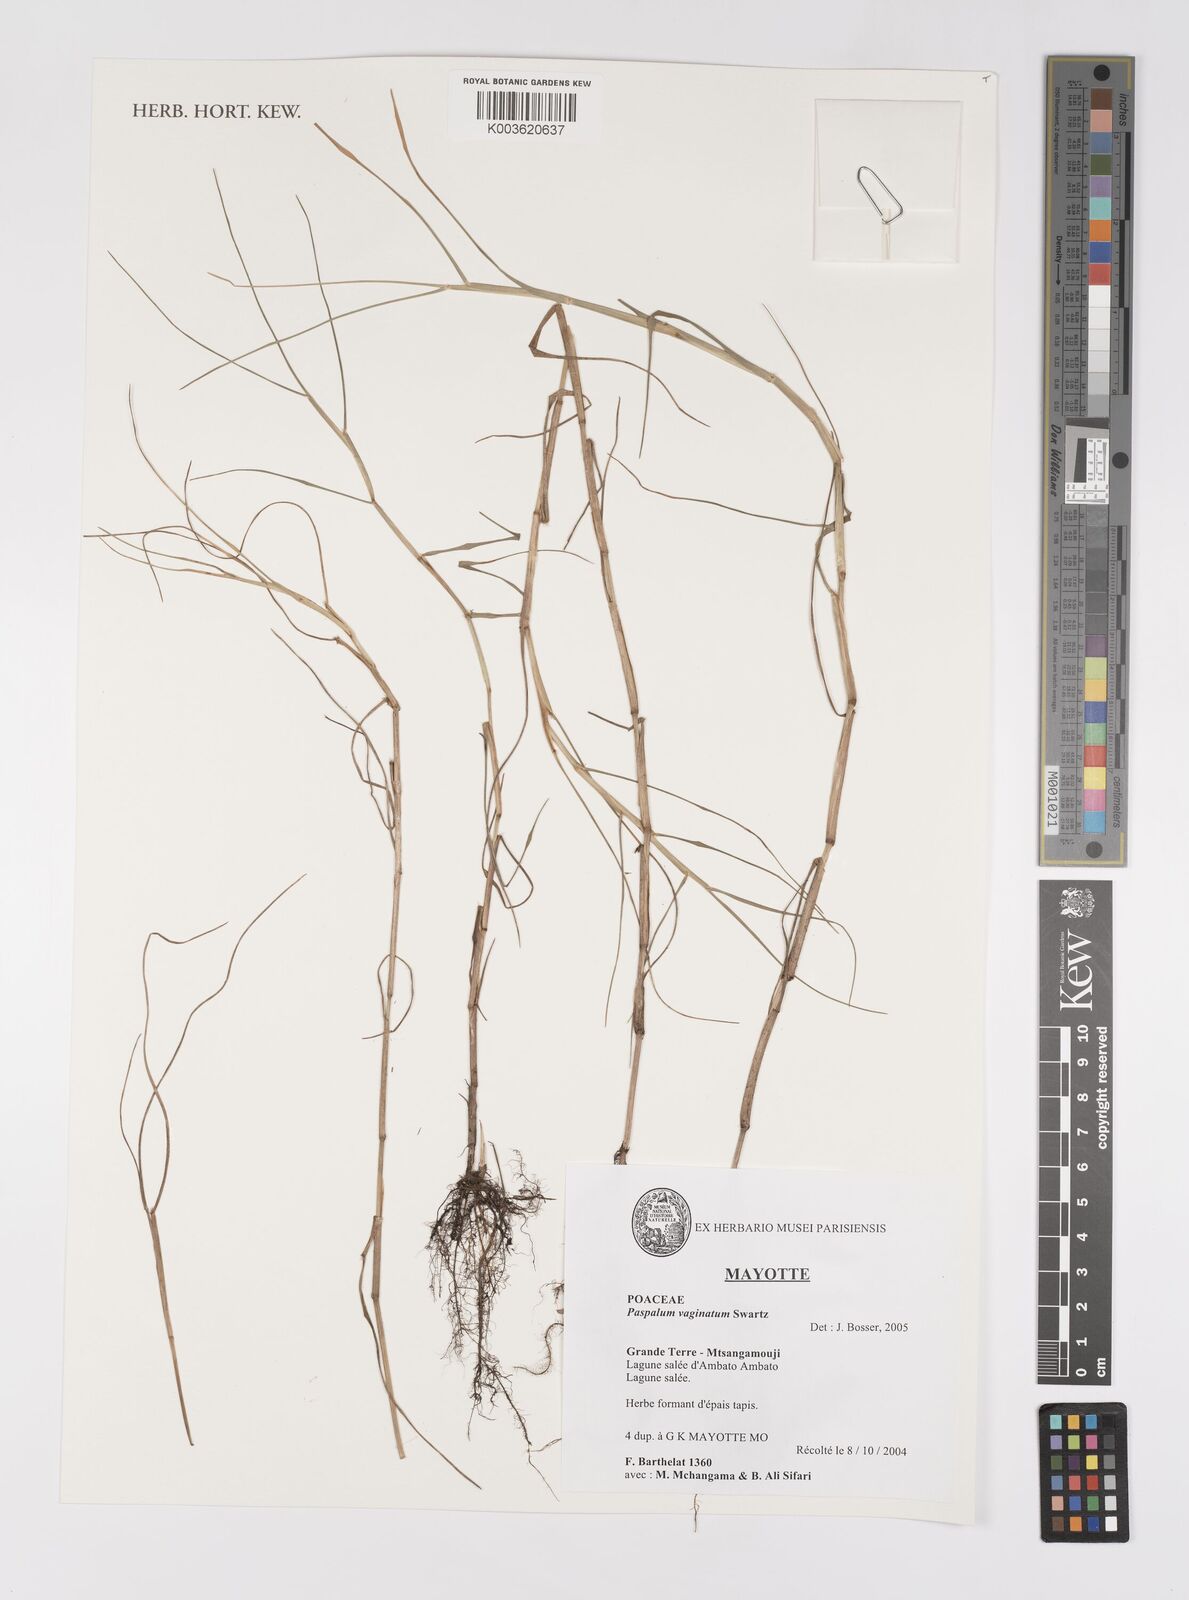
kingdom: Plantae
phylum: Tracheophyta
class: Liliopsida
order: Poales
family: Poaceae
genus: Paspalum
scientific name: Paspalum vaginatum
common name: Seashore paspalum
